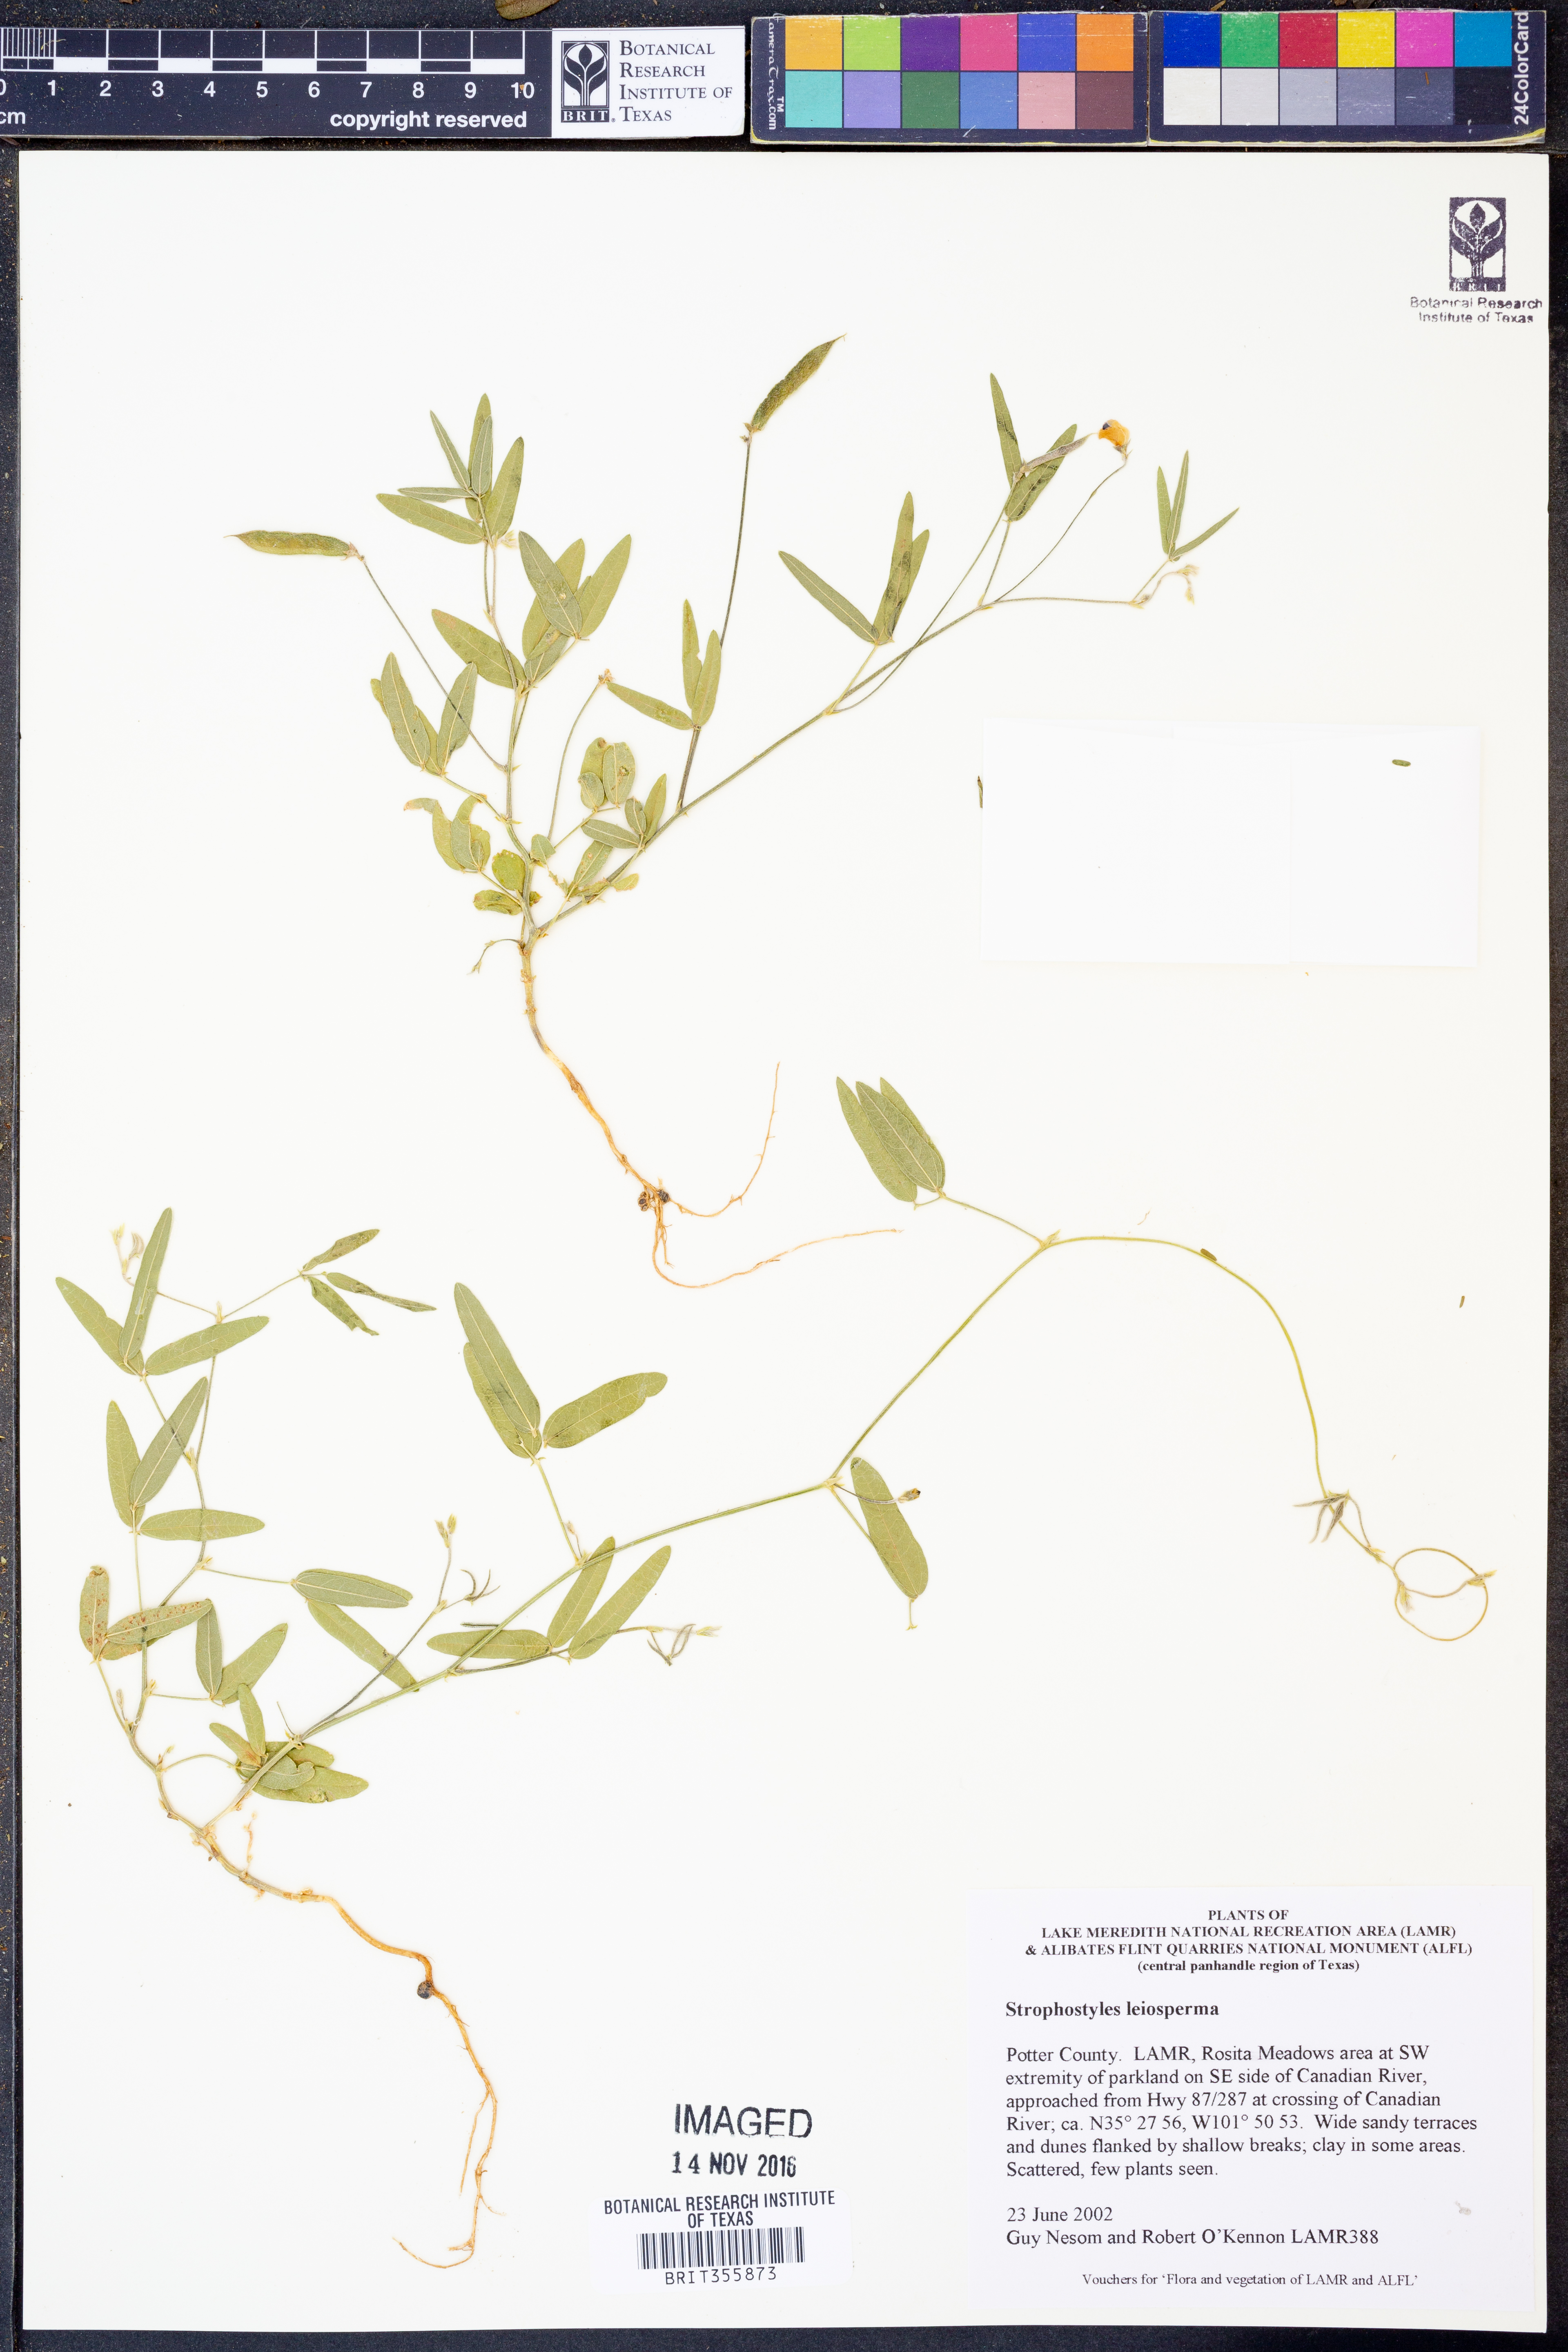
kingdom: Plantae
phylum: Tracheophyta
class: Magnoliopsida
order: Fabales
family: Fabaceae
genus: Strophostyles
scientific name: Strophostyles leiosperma
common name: Smooth-seed wild bean
